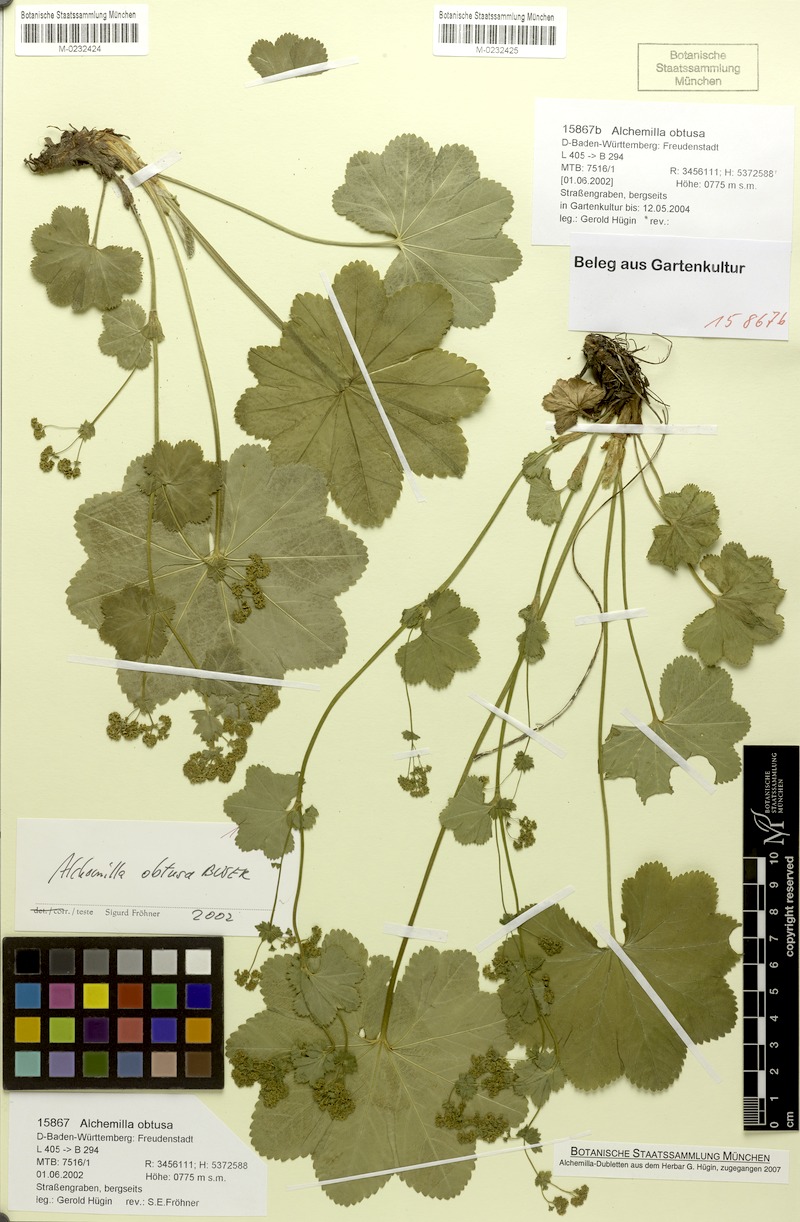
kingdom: Plantae
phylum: Tracheophyta
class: Magnoliopsida
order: Rosales
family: Rosaceae
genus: Alchemilla
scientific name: Alchemilla obtusa
